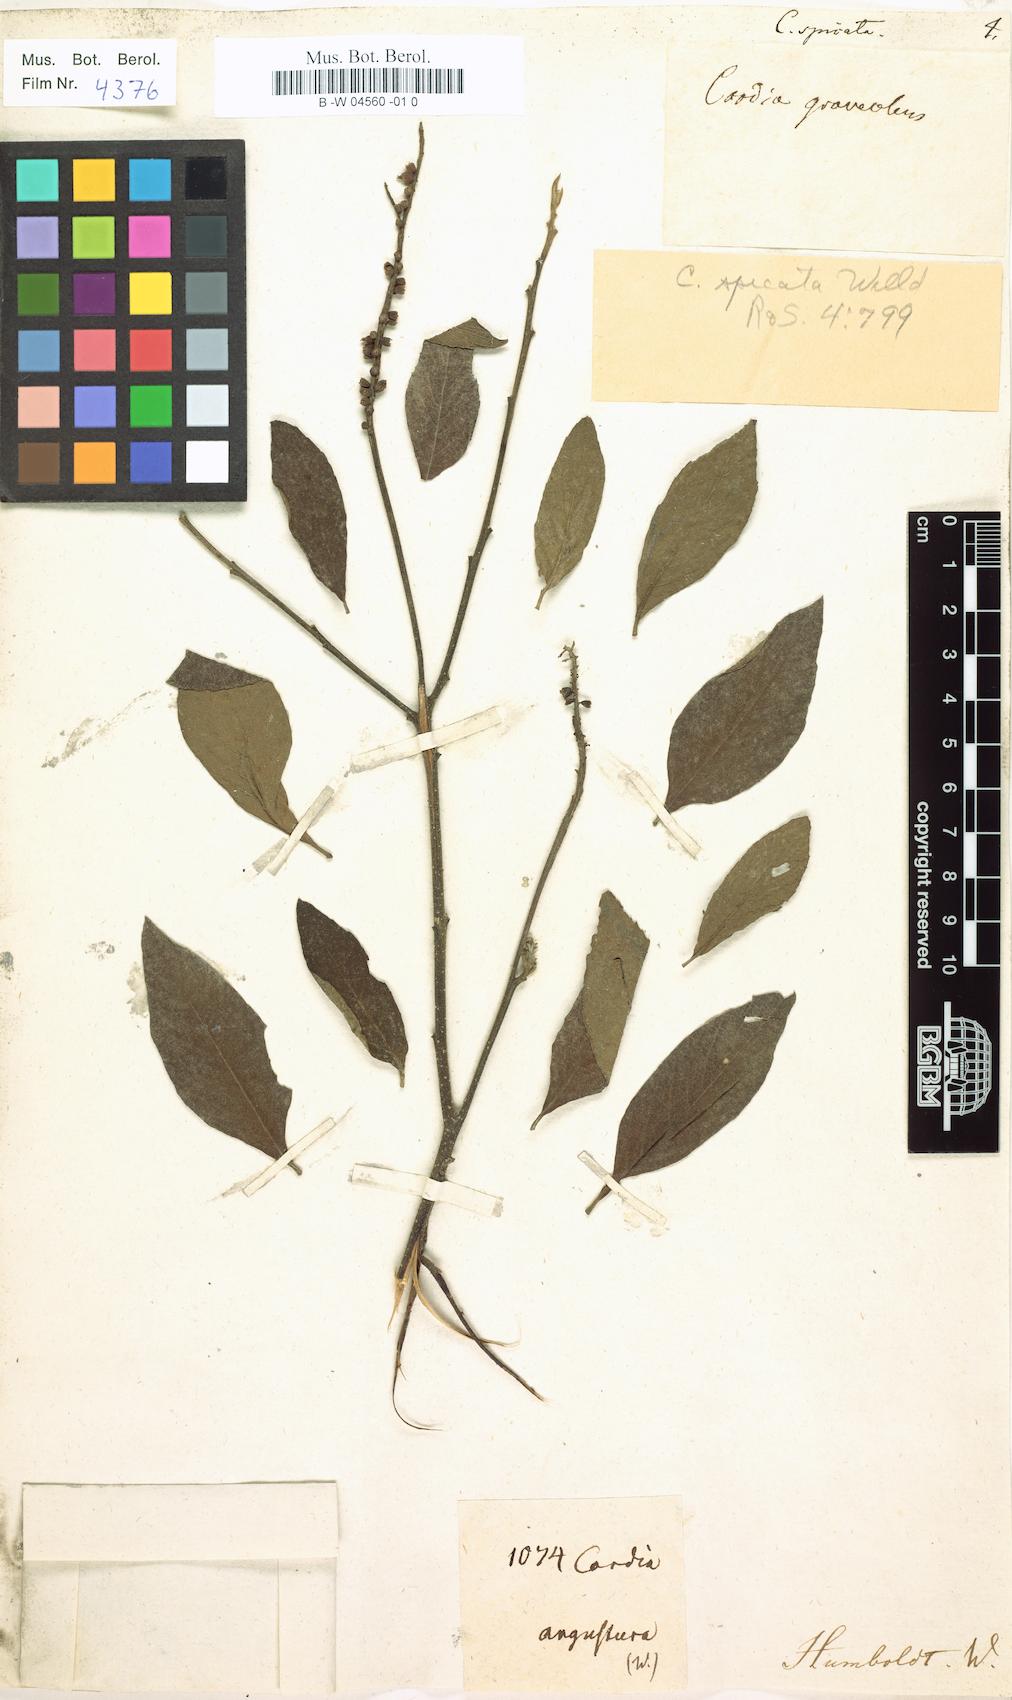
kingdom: Plantae
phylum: Tracheophyta
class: Magnoliopsida
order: Boraginales
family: Cordiaceae
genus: Varronia
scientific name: Varronia curassavica
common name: Black sage
